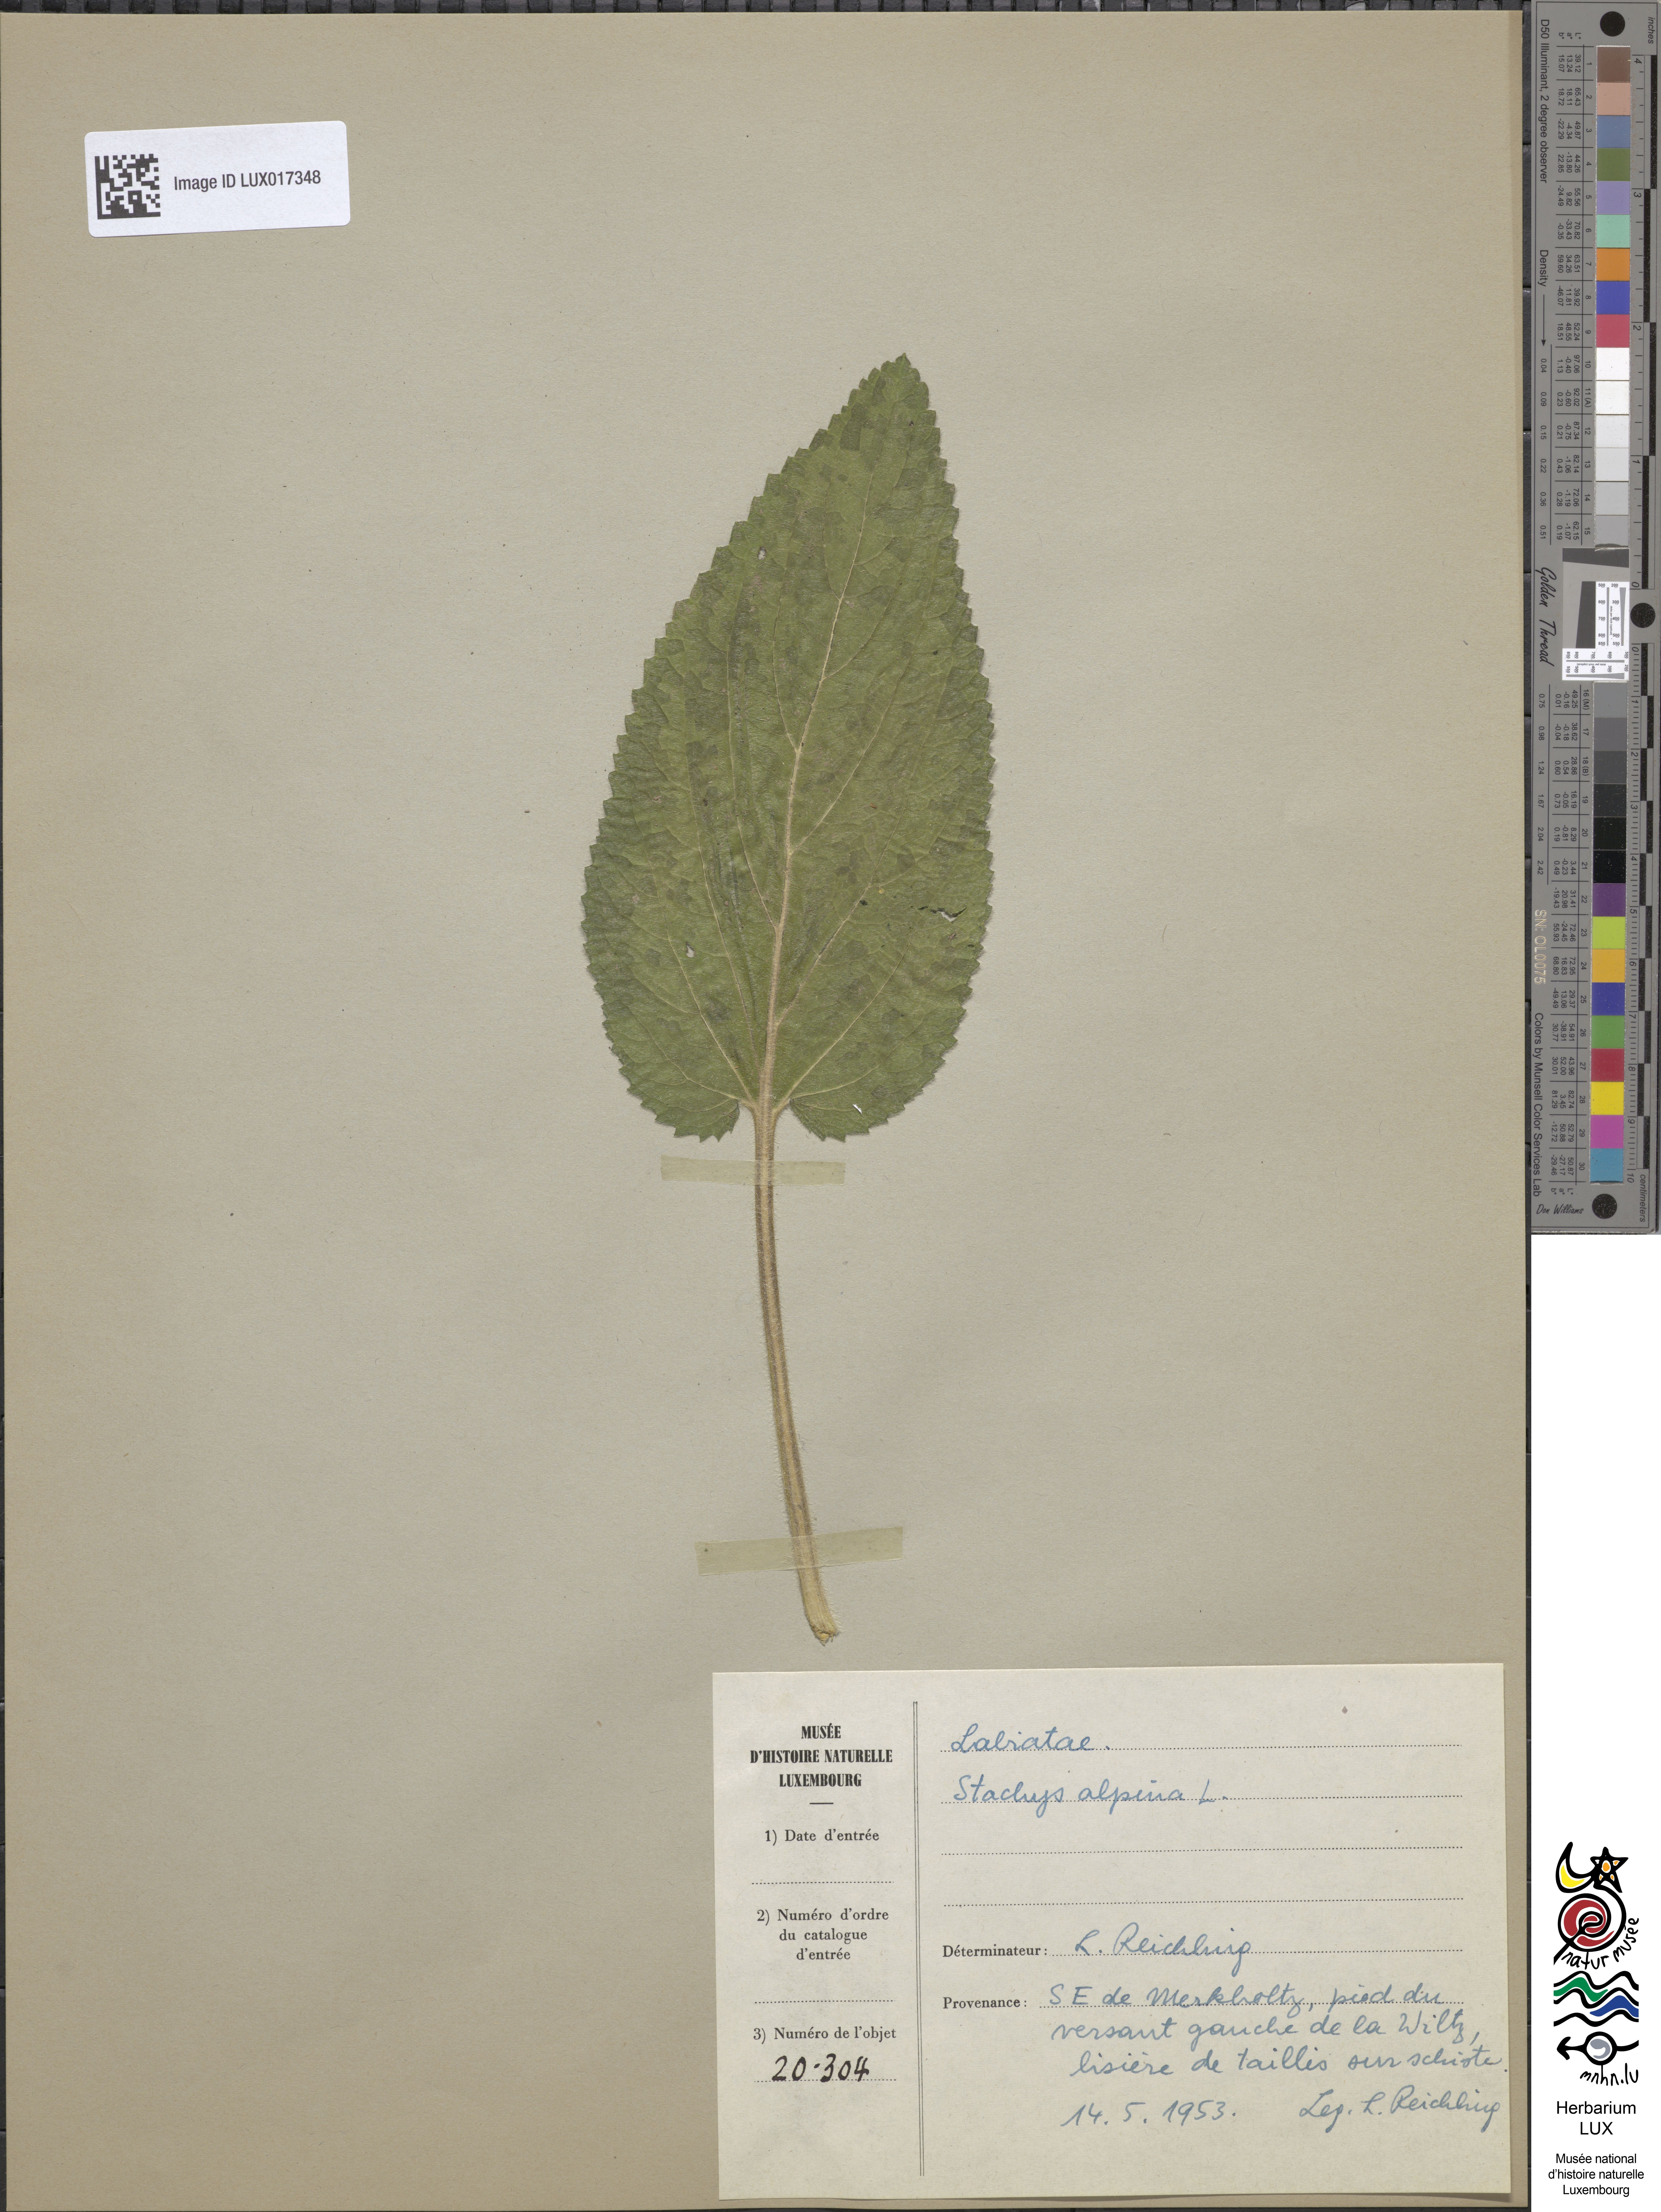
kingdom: Plantae
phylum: Tracheophyta
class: Magnoliopsida
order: Lamiales
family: Lamiaceae
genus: Stachys
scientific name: Stachys alpina
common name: Limestone woundwort
